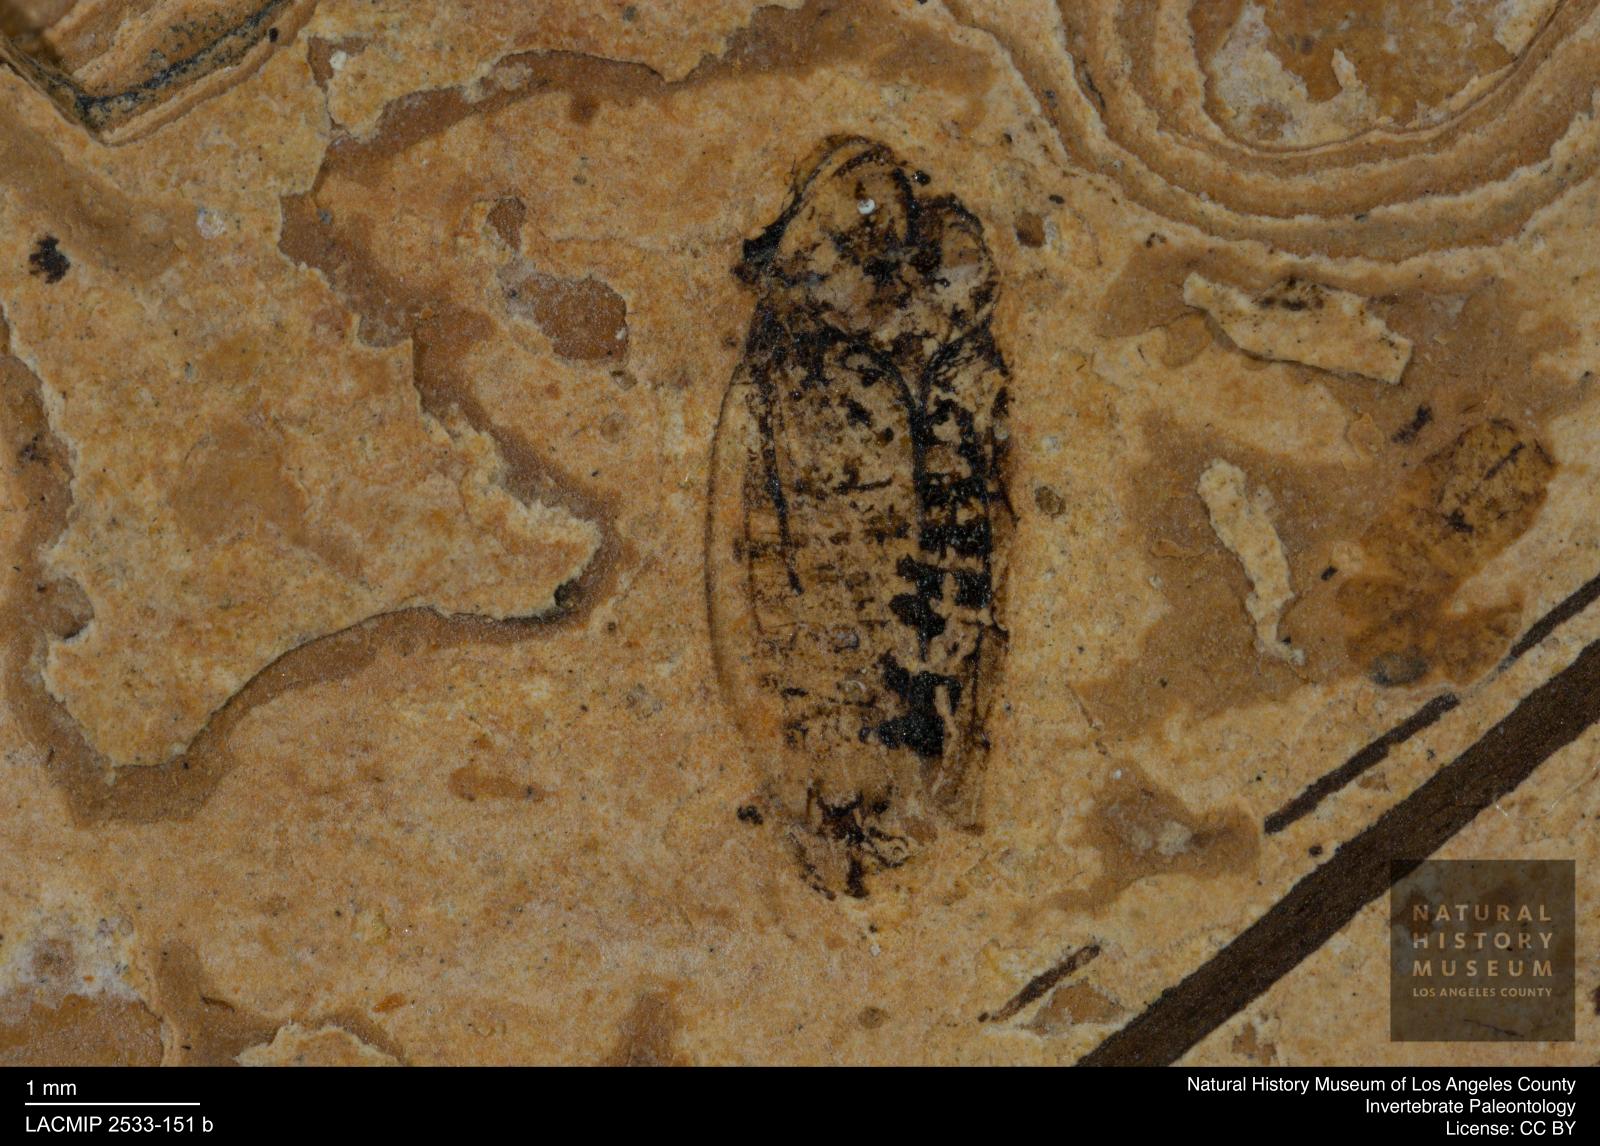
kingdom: Animalia
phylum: Arthropoda
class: Insecta
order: Hemiptera
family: Cicadellidae
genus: Iassus
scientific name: Iassus sepultus
